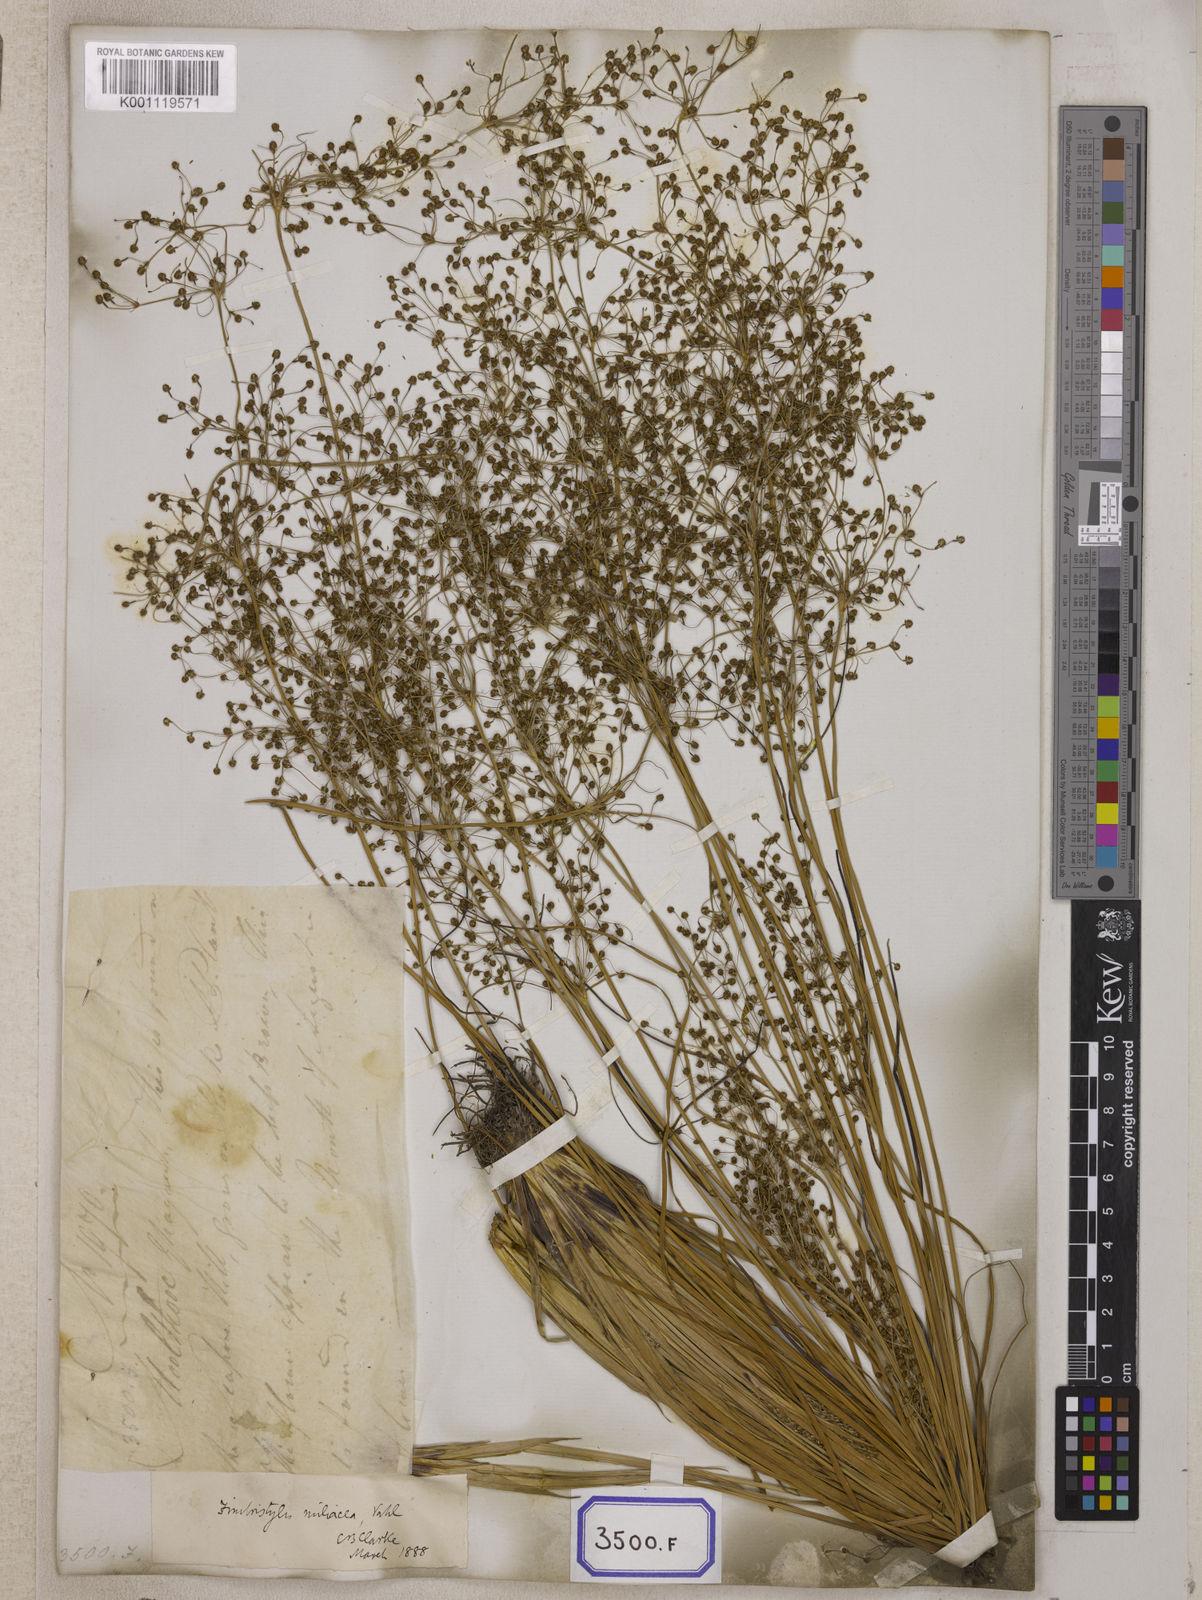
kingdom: Plantae
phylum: Tracheophyta
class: Liliopsida
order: Poales
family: Cyperaceae
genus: Fimbristylis
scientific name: Fimbristylis
